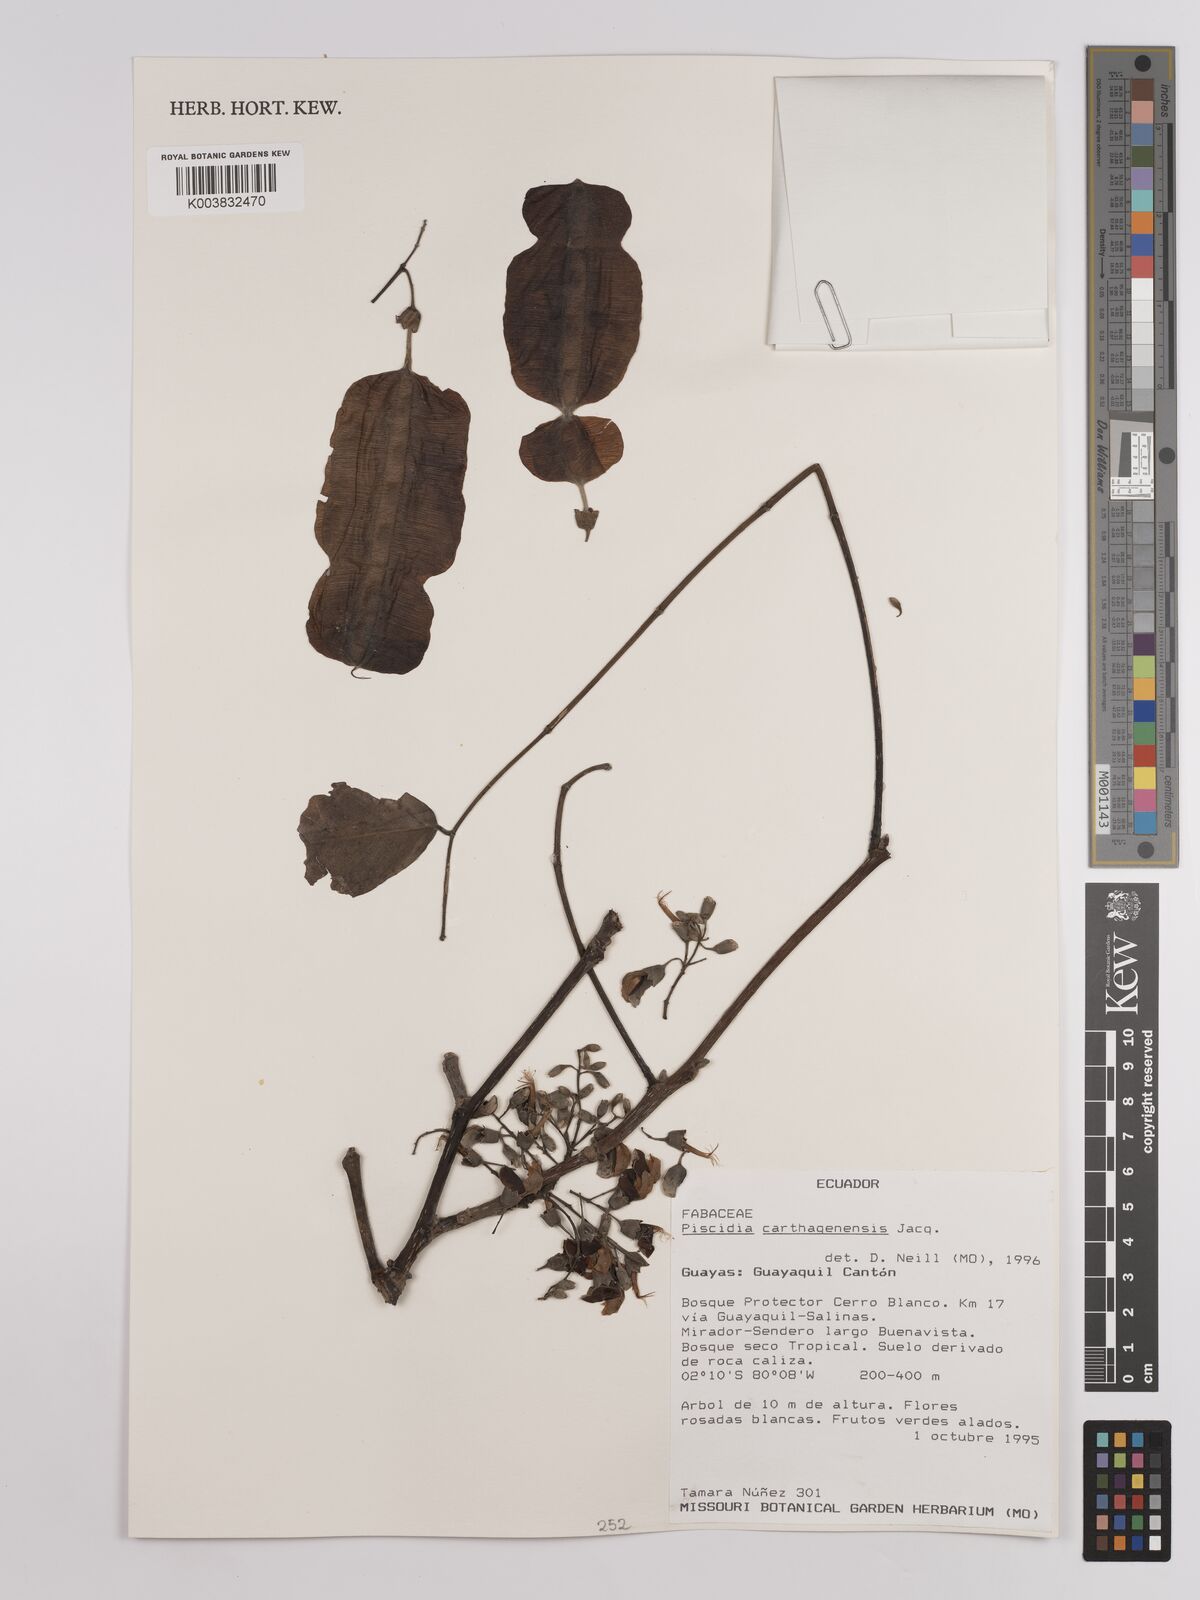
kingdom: Plantae
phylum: Tracheophyta
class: Magnoliopsida
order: Fabales
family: Fabaceae
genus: Piscidia
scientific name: Piscidia carthagenensis
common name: Stinkwood
